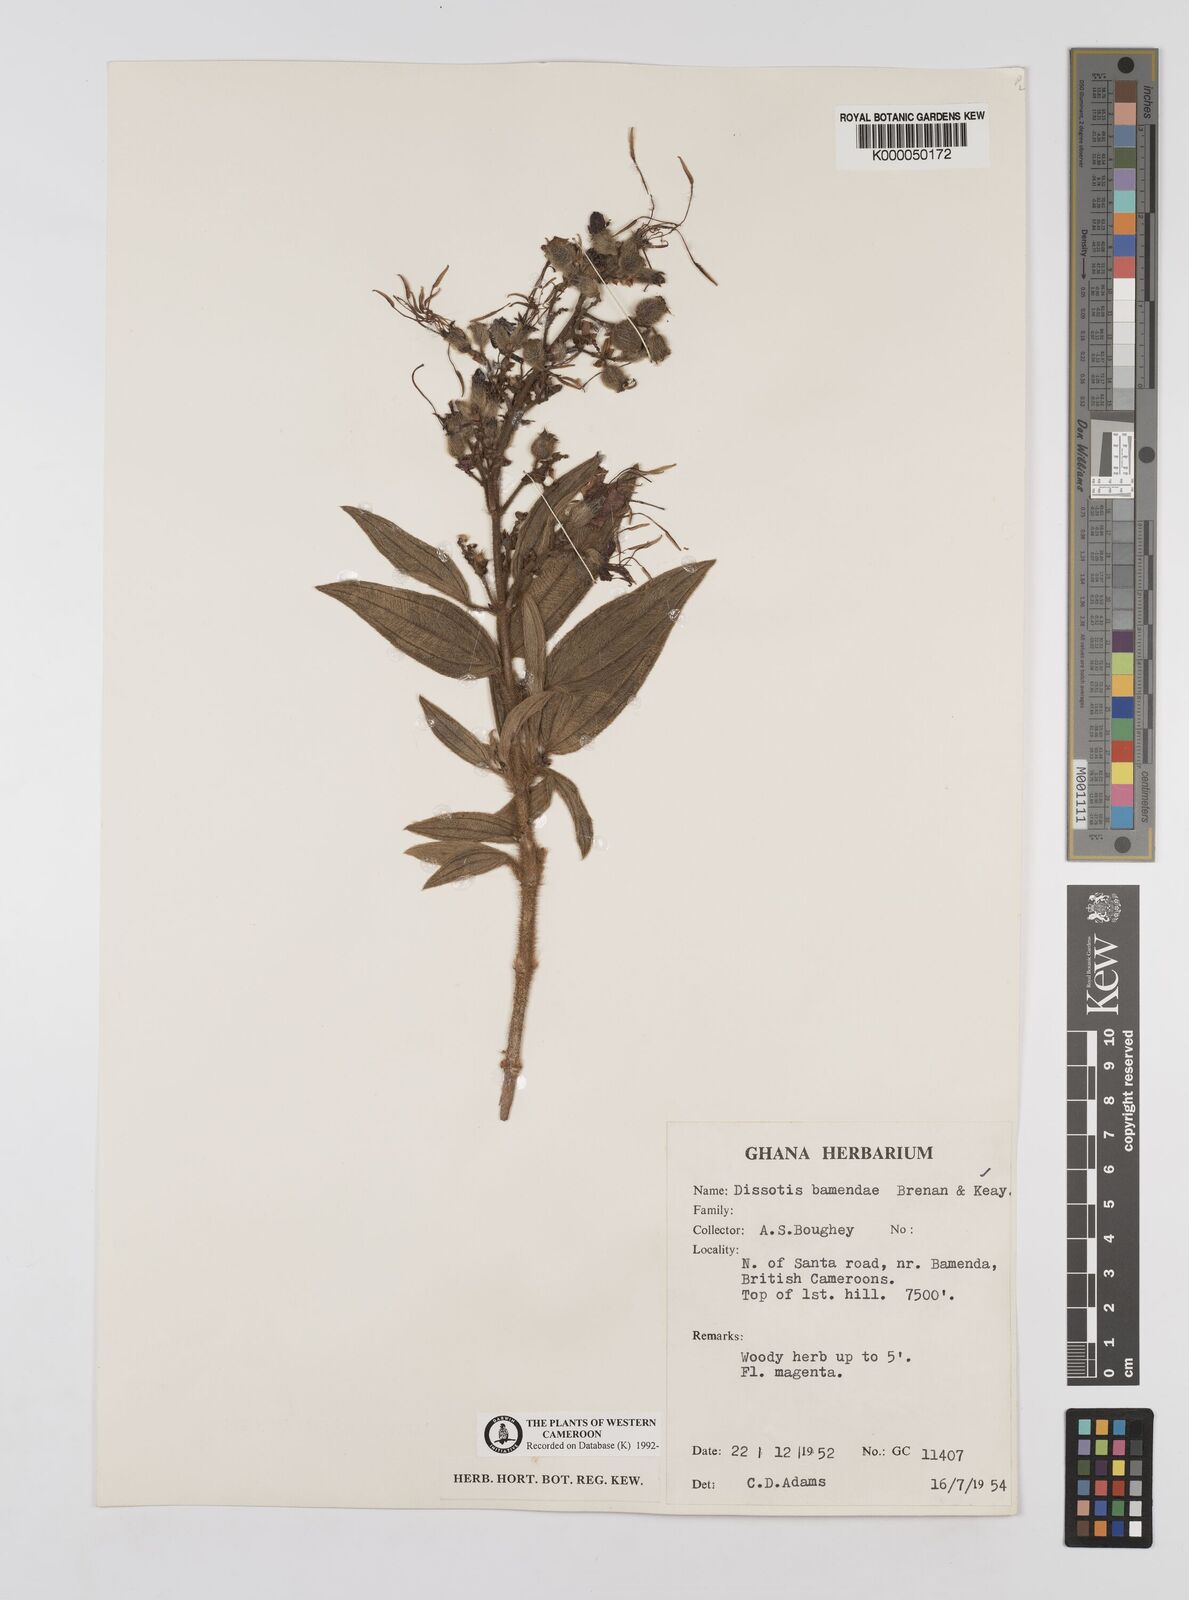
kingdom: Plantae
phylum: Tracheophyta
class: Magnoliopsida
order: Myrtales
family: Melastomataceae
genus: Rosettea
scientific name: Rosettea riparia
